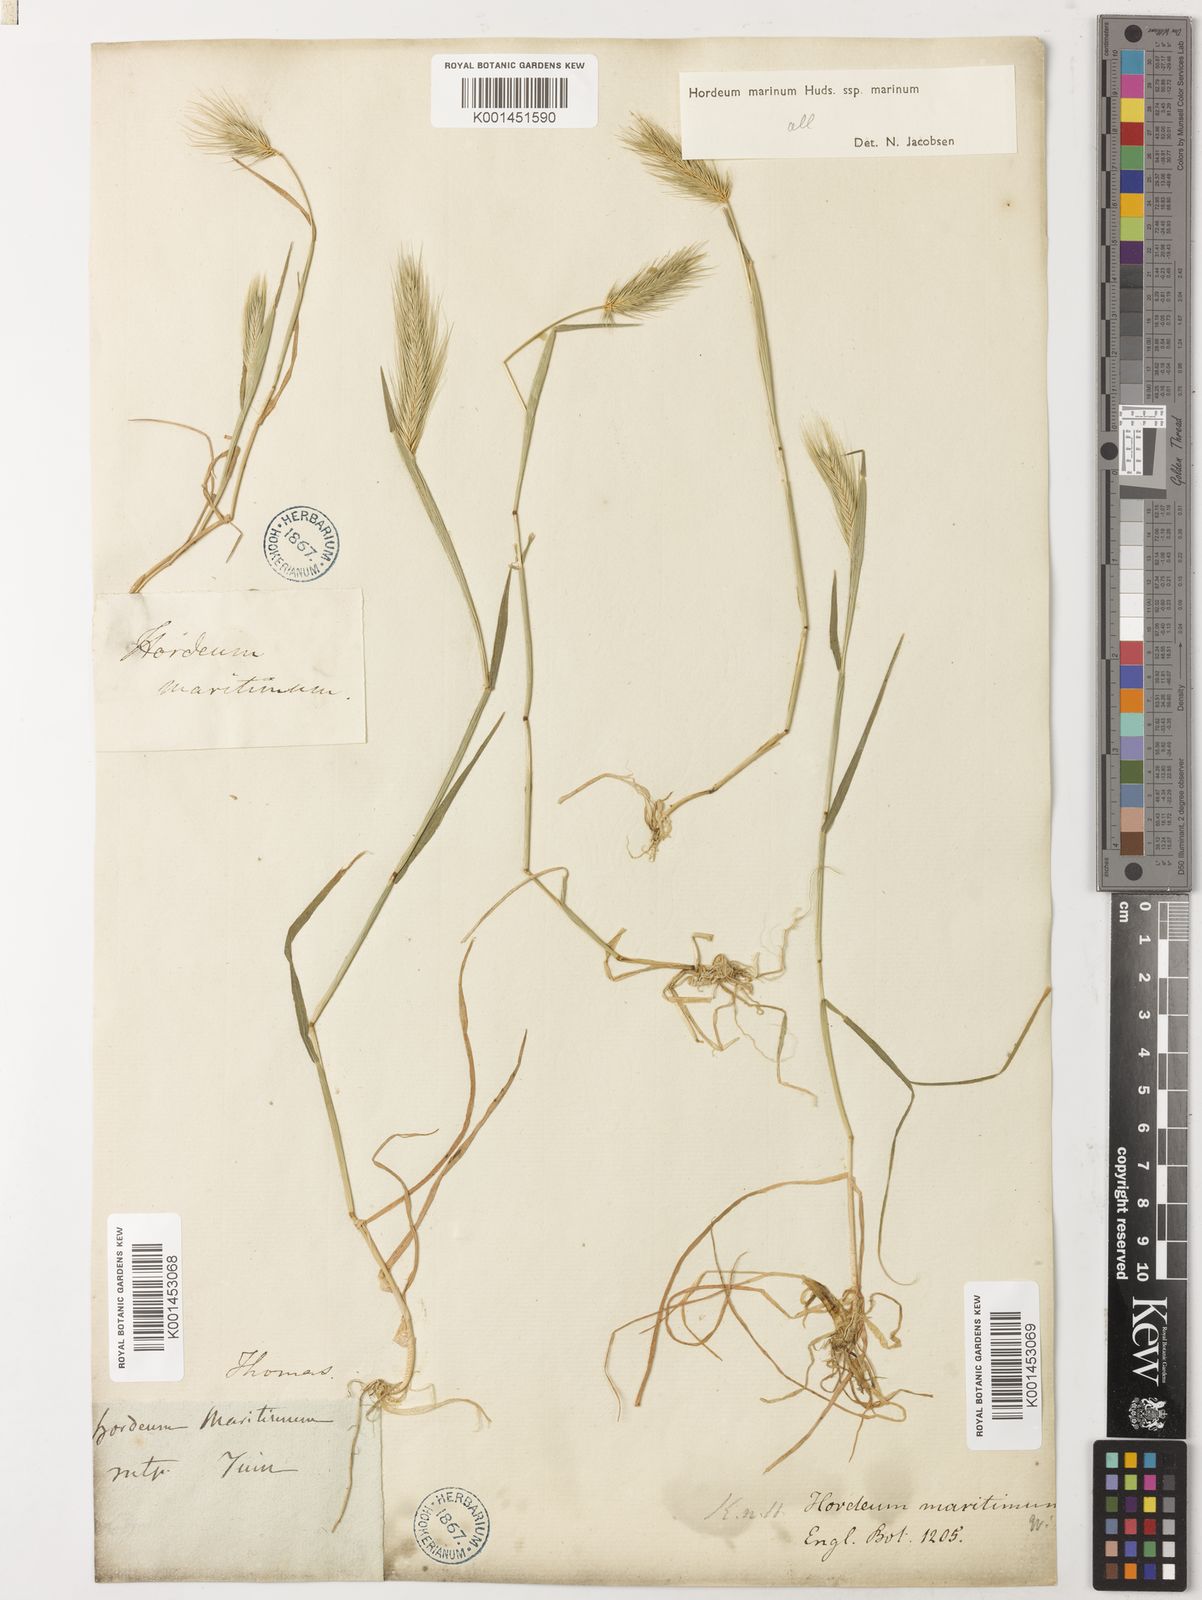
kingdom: Plantae
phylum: Tracheophyta
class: Liliopsida
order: Poales
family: Poaceae
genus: Hordeum
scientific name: Hordeum marinum
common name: Sea barley
